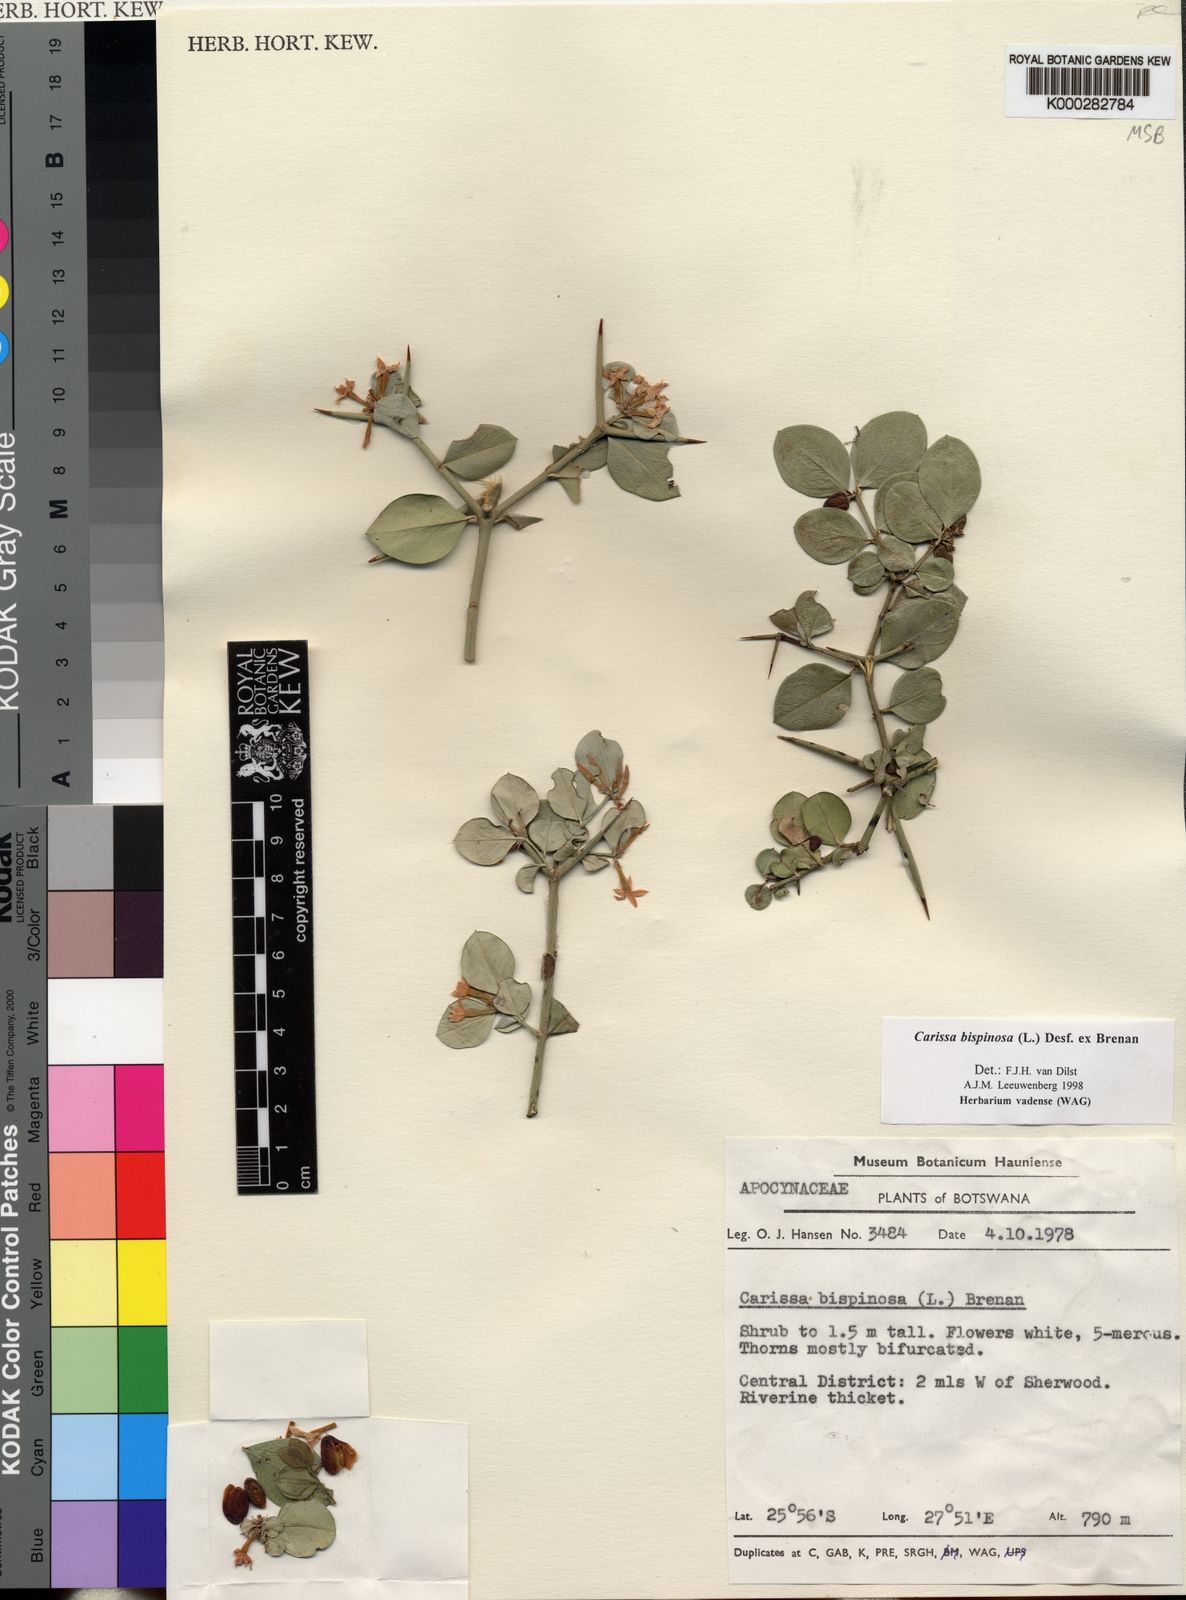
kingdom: Plantae
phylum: Tracheophyta
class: Magnoliopsida
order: Gentianales
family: Apocynaceae
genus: Carissa
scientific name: Carissa bispinosa
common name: Forest num-num
